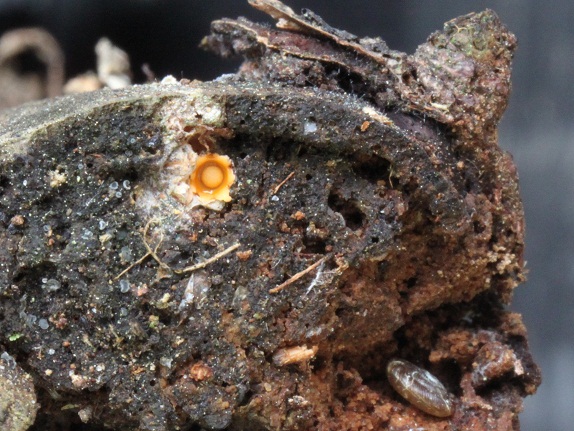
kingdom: Fungi
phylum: Basidiomycota
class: Agaricomycetes
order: Geastrales
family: Geastraceae
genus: Sphaerobolus
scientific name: Sphaerobolus stellatus
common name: bombekaster
